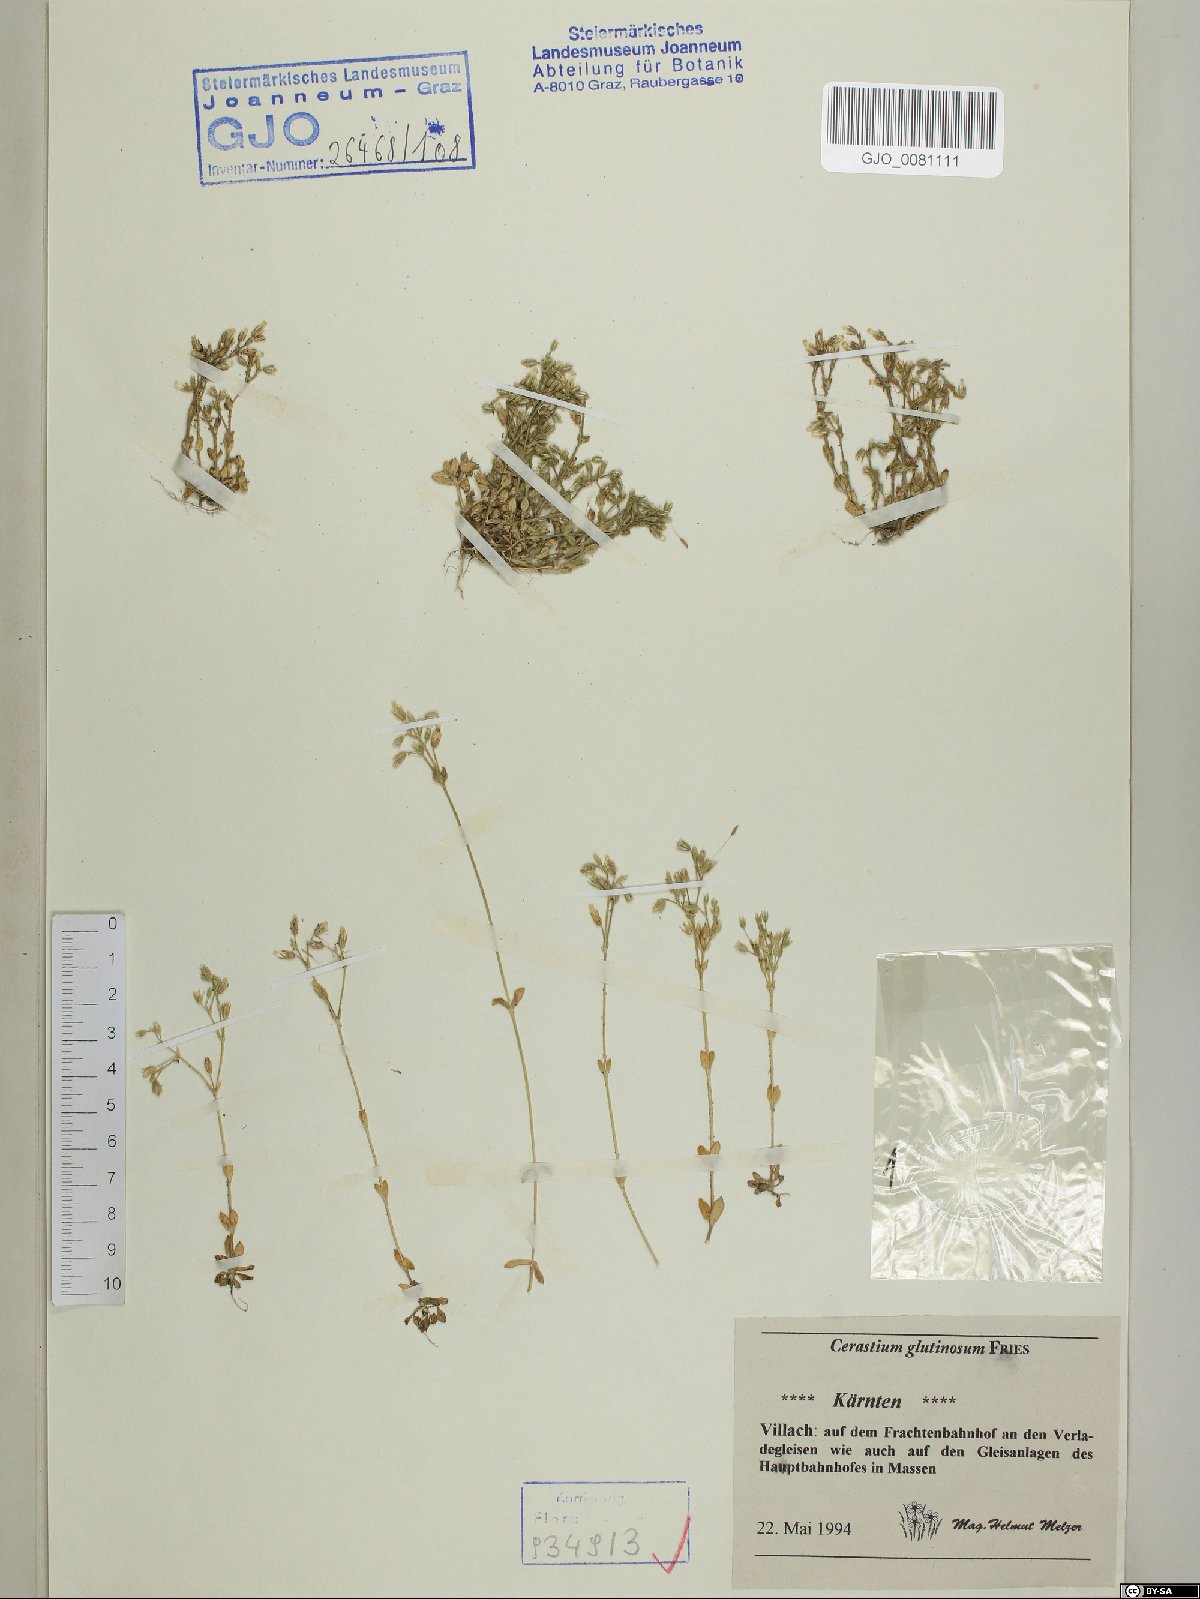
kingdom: Plantae
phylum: Tracheophyta
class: Magnoliopsida
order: Caryophyllales
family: Caryophyllaceae
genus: Cerastium
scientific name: Cerastium glutinosum
